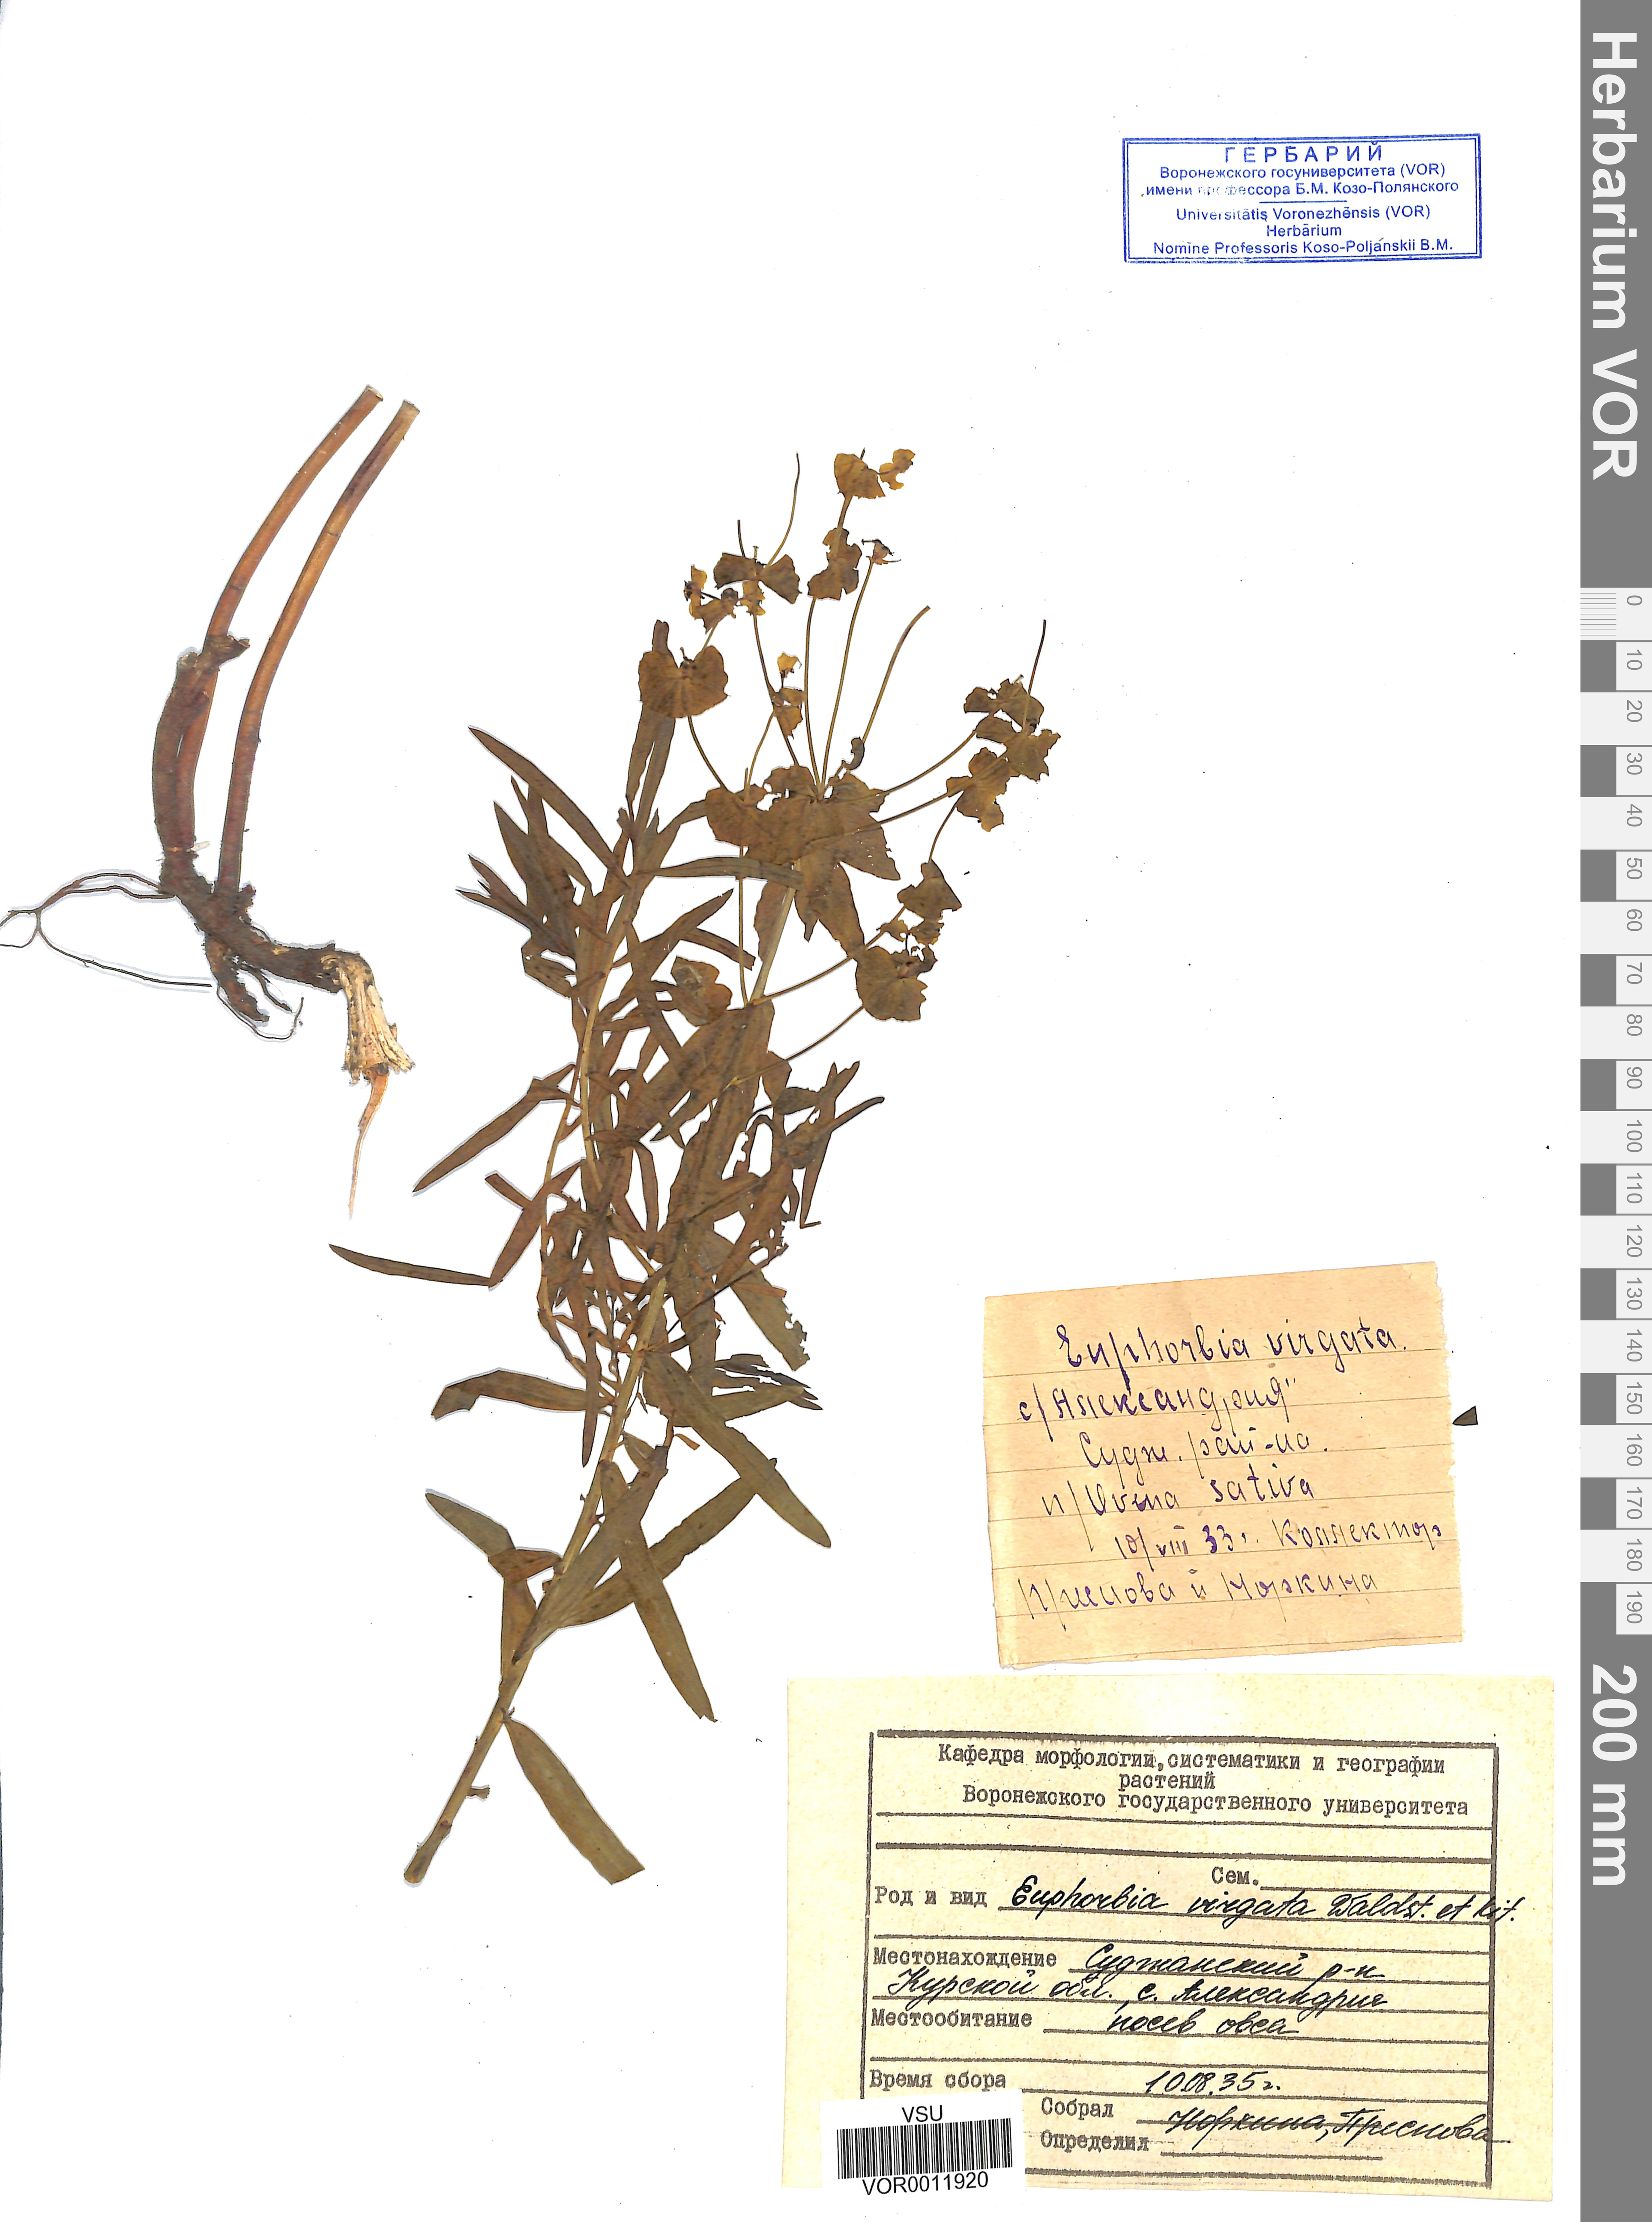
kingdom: Plantae
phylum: Tracheophyta
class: Magnoliopsida
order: Malpighiales
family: Euphorbiaceae
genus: Euphorbia
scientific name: Euphorbia virgata
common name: Leafy spurge
